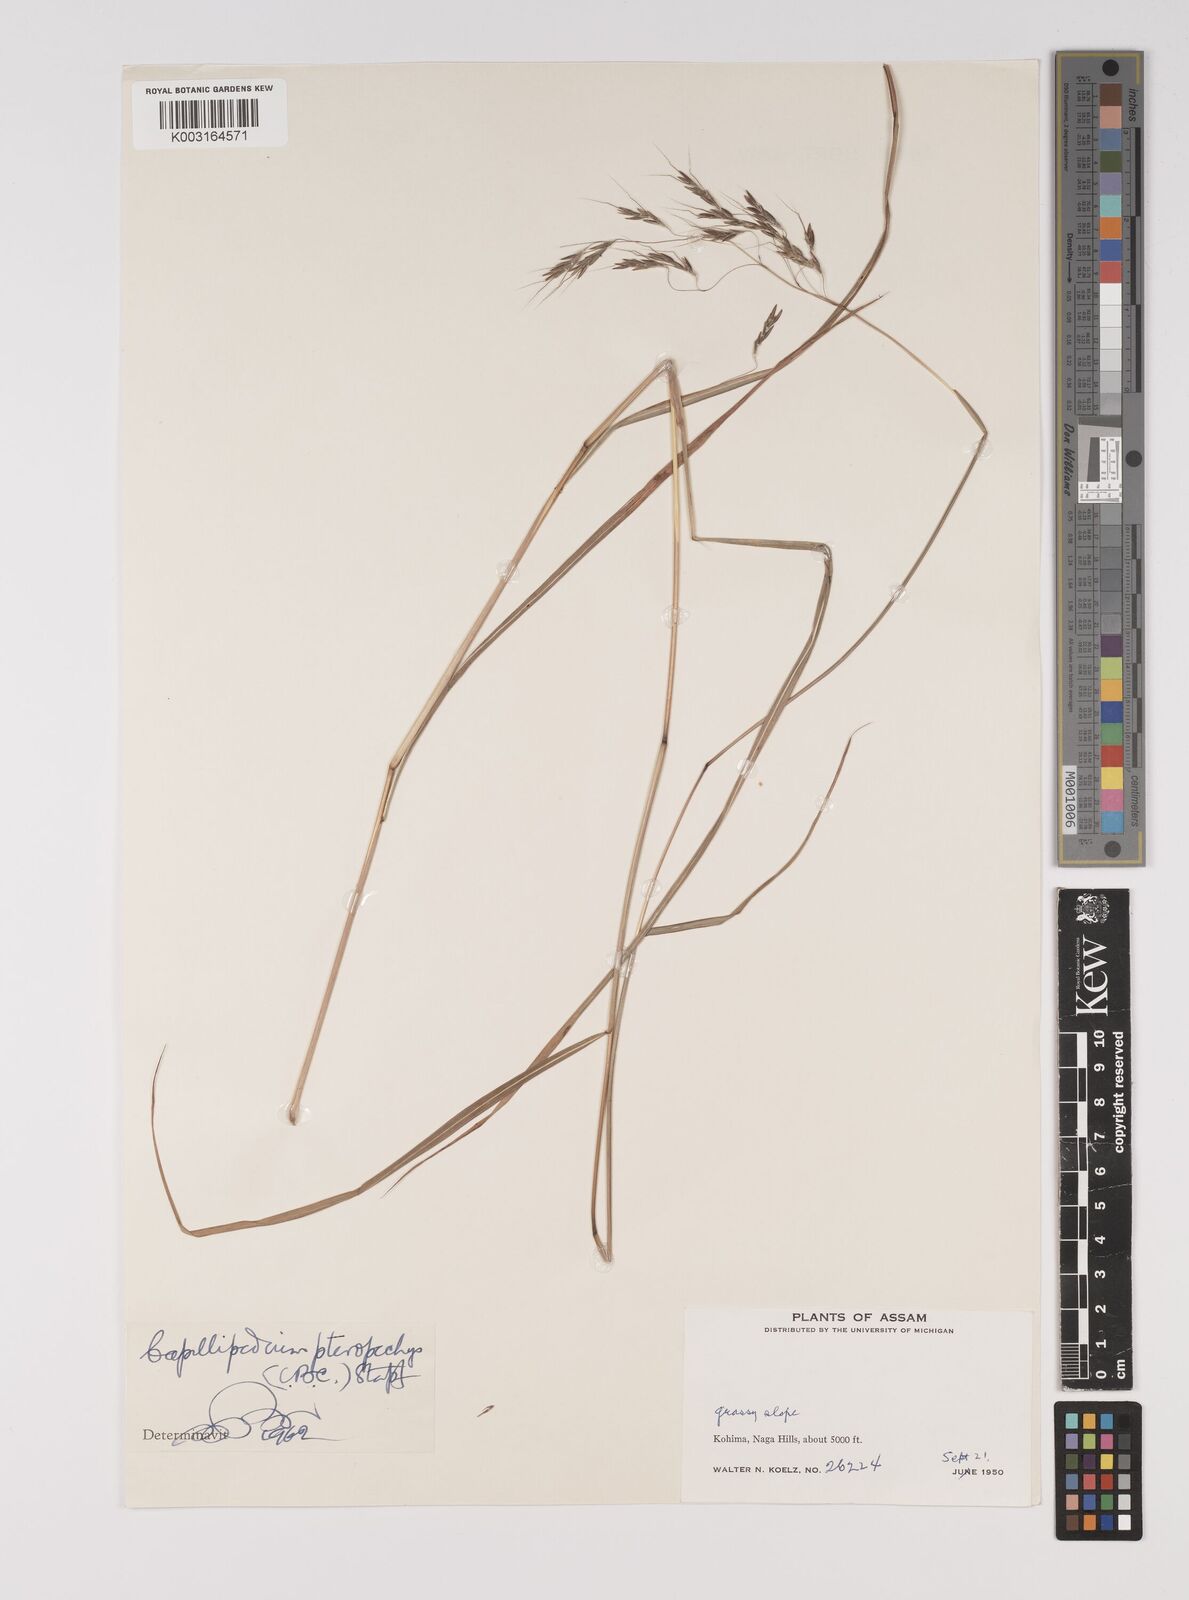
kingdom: Plantae
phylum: Tracheophyta
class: Liliopsida
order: Poales
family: Poaceae
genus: Capillipedium
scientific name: Capillipedium pteropechys
